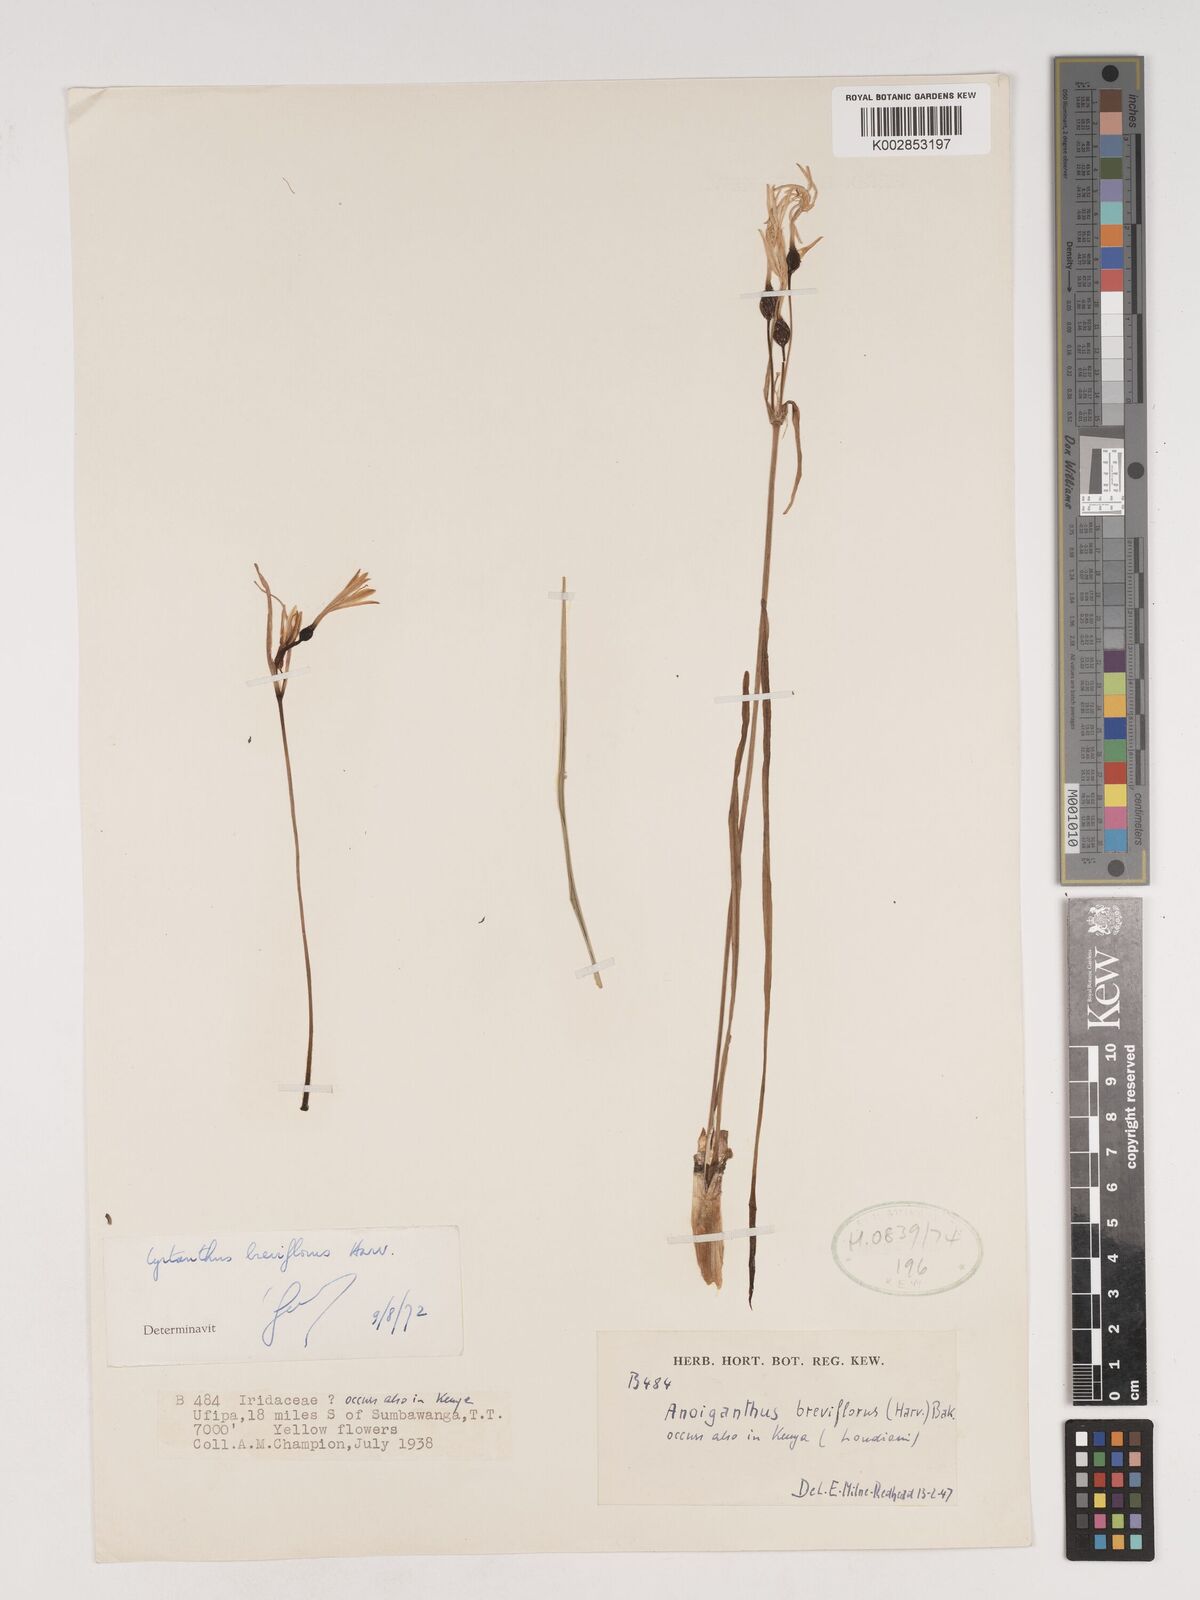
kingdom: Plantae
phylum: Tracheophyta
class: Liliopsida
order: Asparagales
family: Amaryllidaceae
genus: Cyrtanthus
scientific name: Cyrtanthus breviflorus
